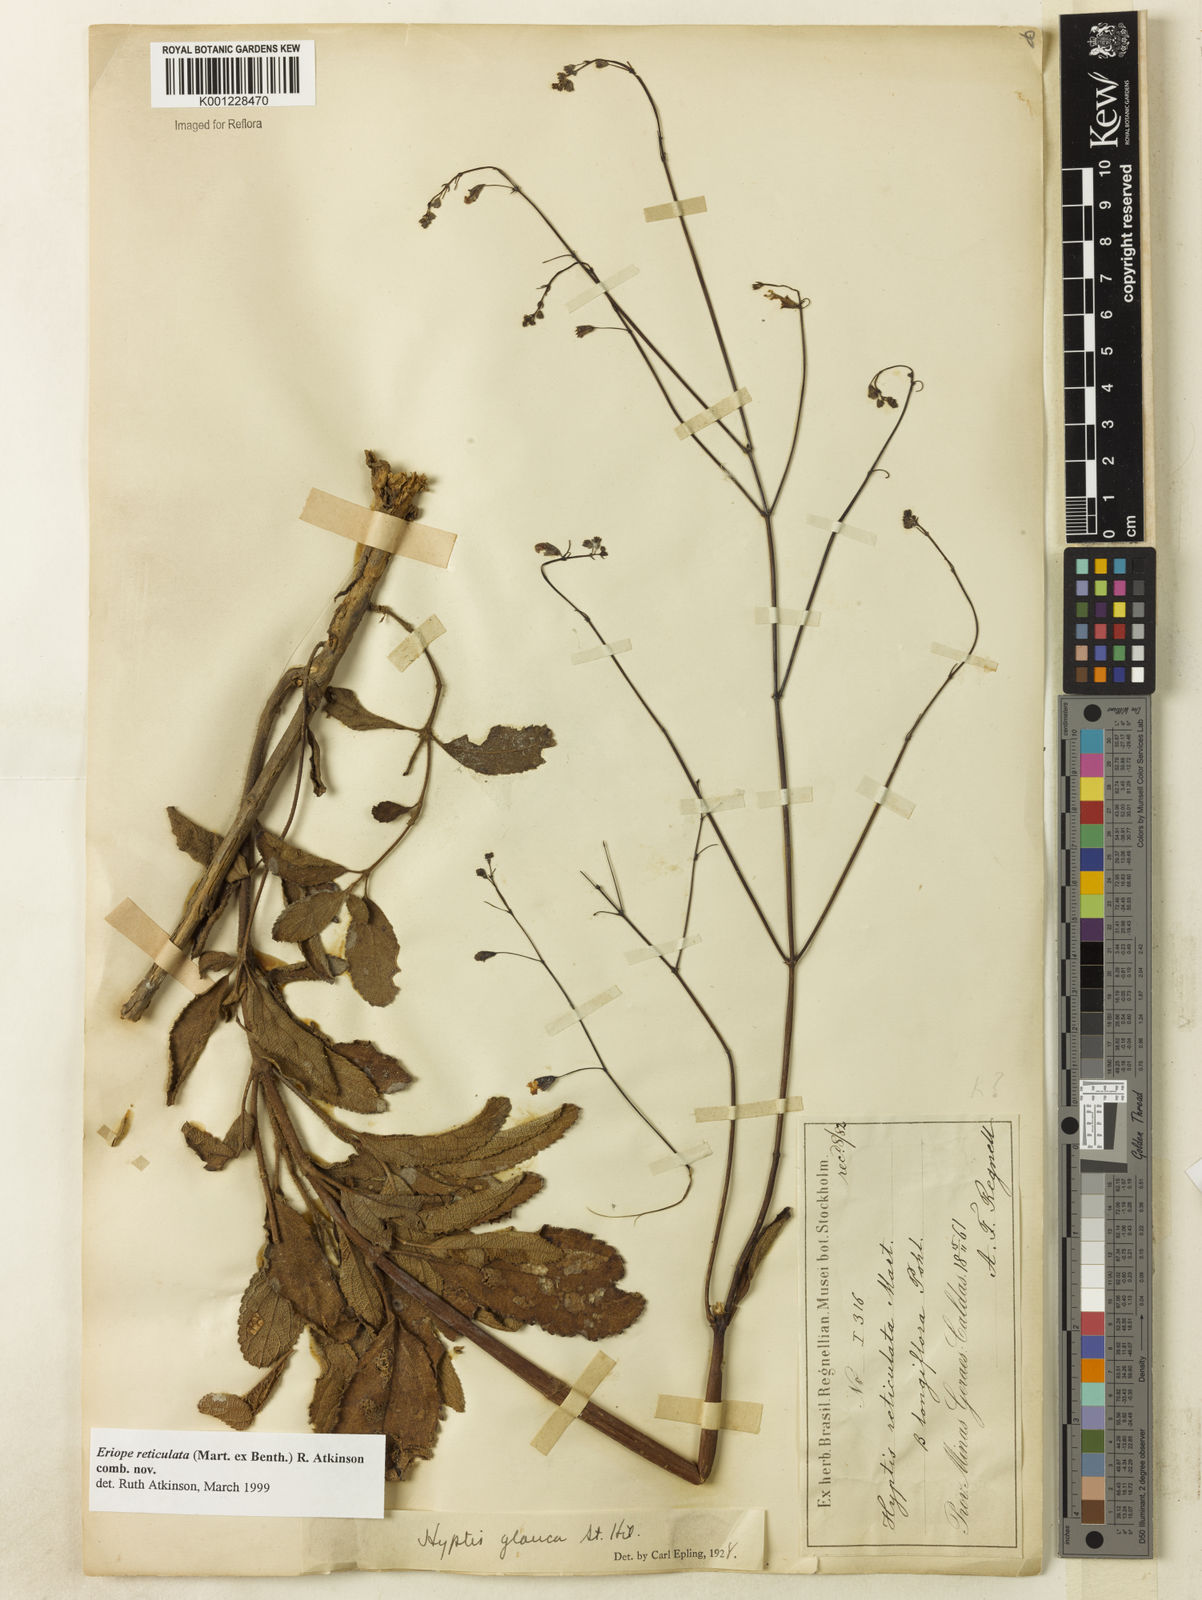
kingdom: Plantae
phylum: Tracheophyta
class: Magnoliopsida
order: Lamiales
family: Lamiaceae
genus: Hypenia
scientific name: Hypenia reticulata
